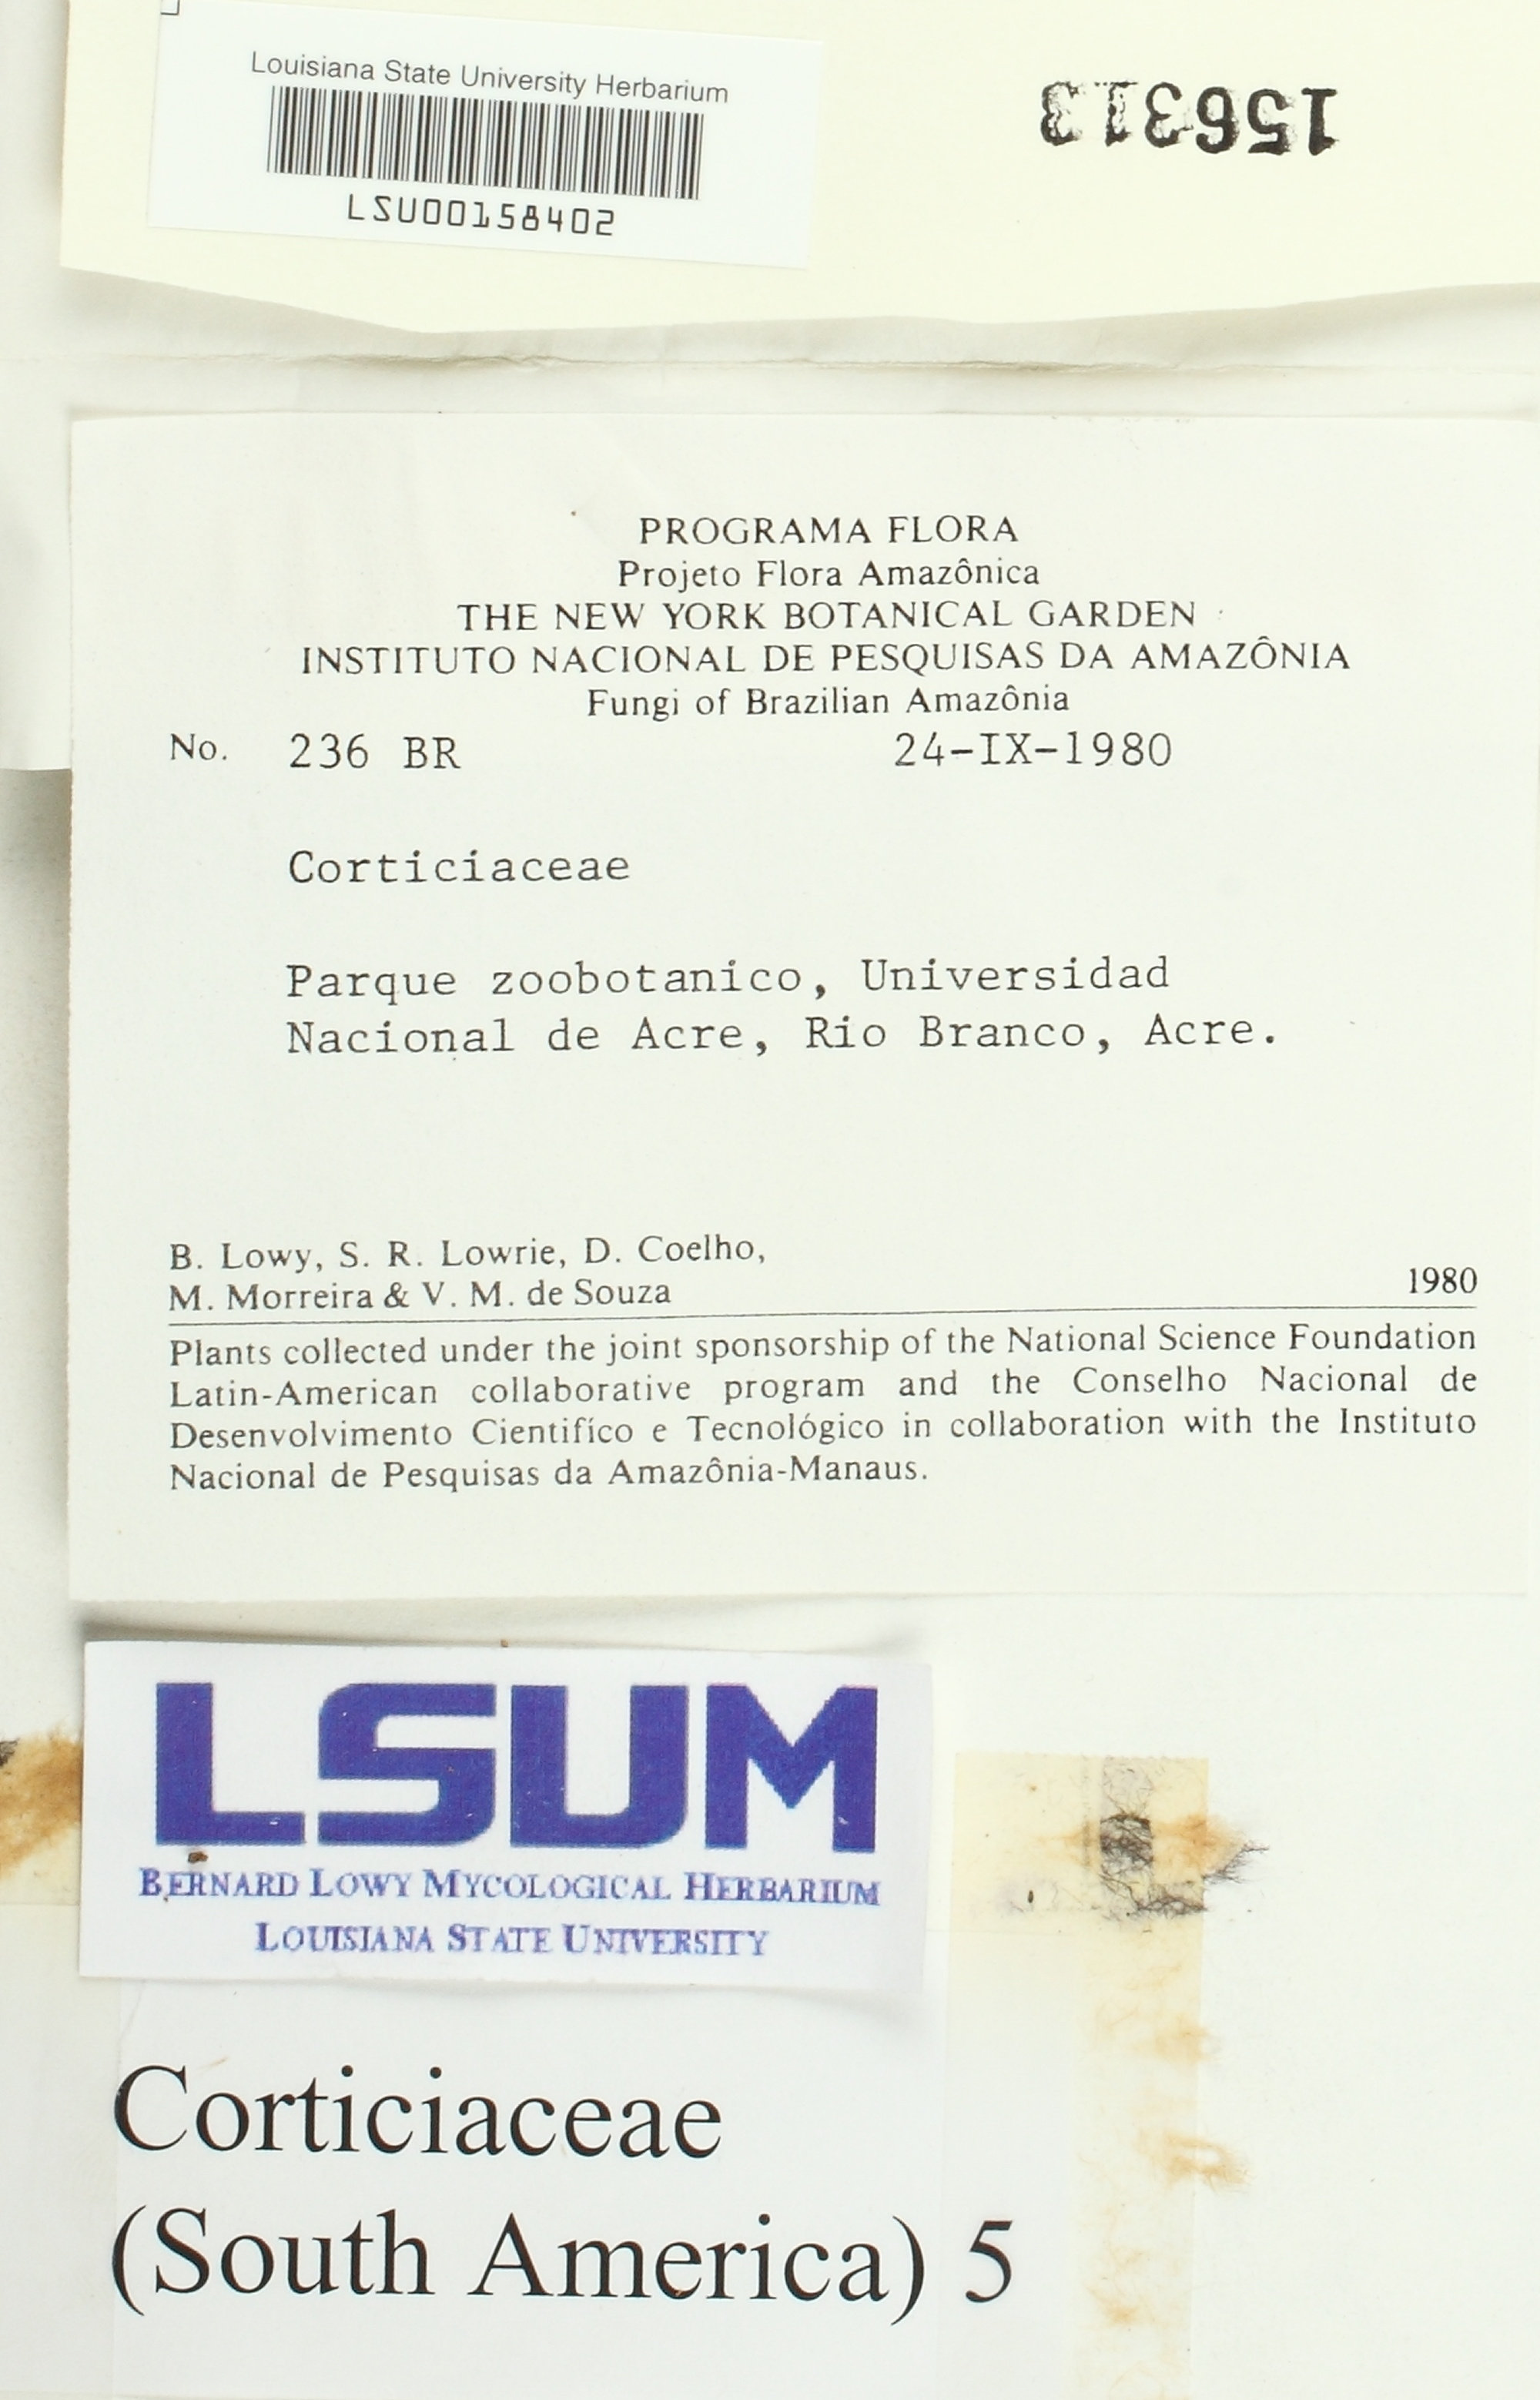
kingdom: Fungi
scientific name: Fungi
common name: Fungi
